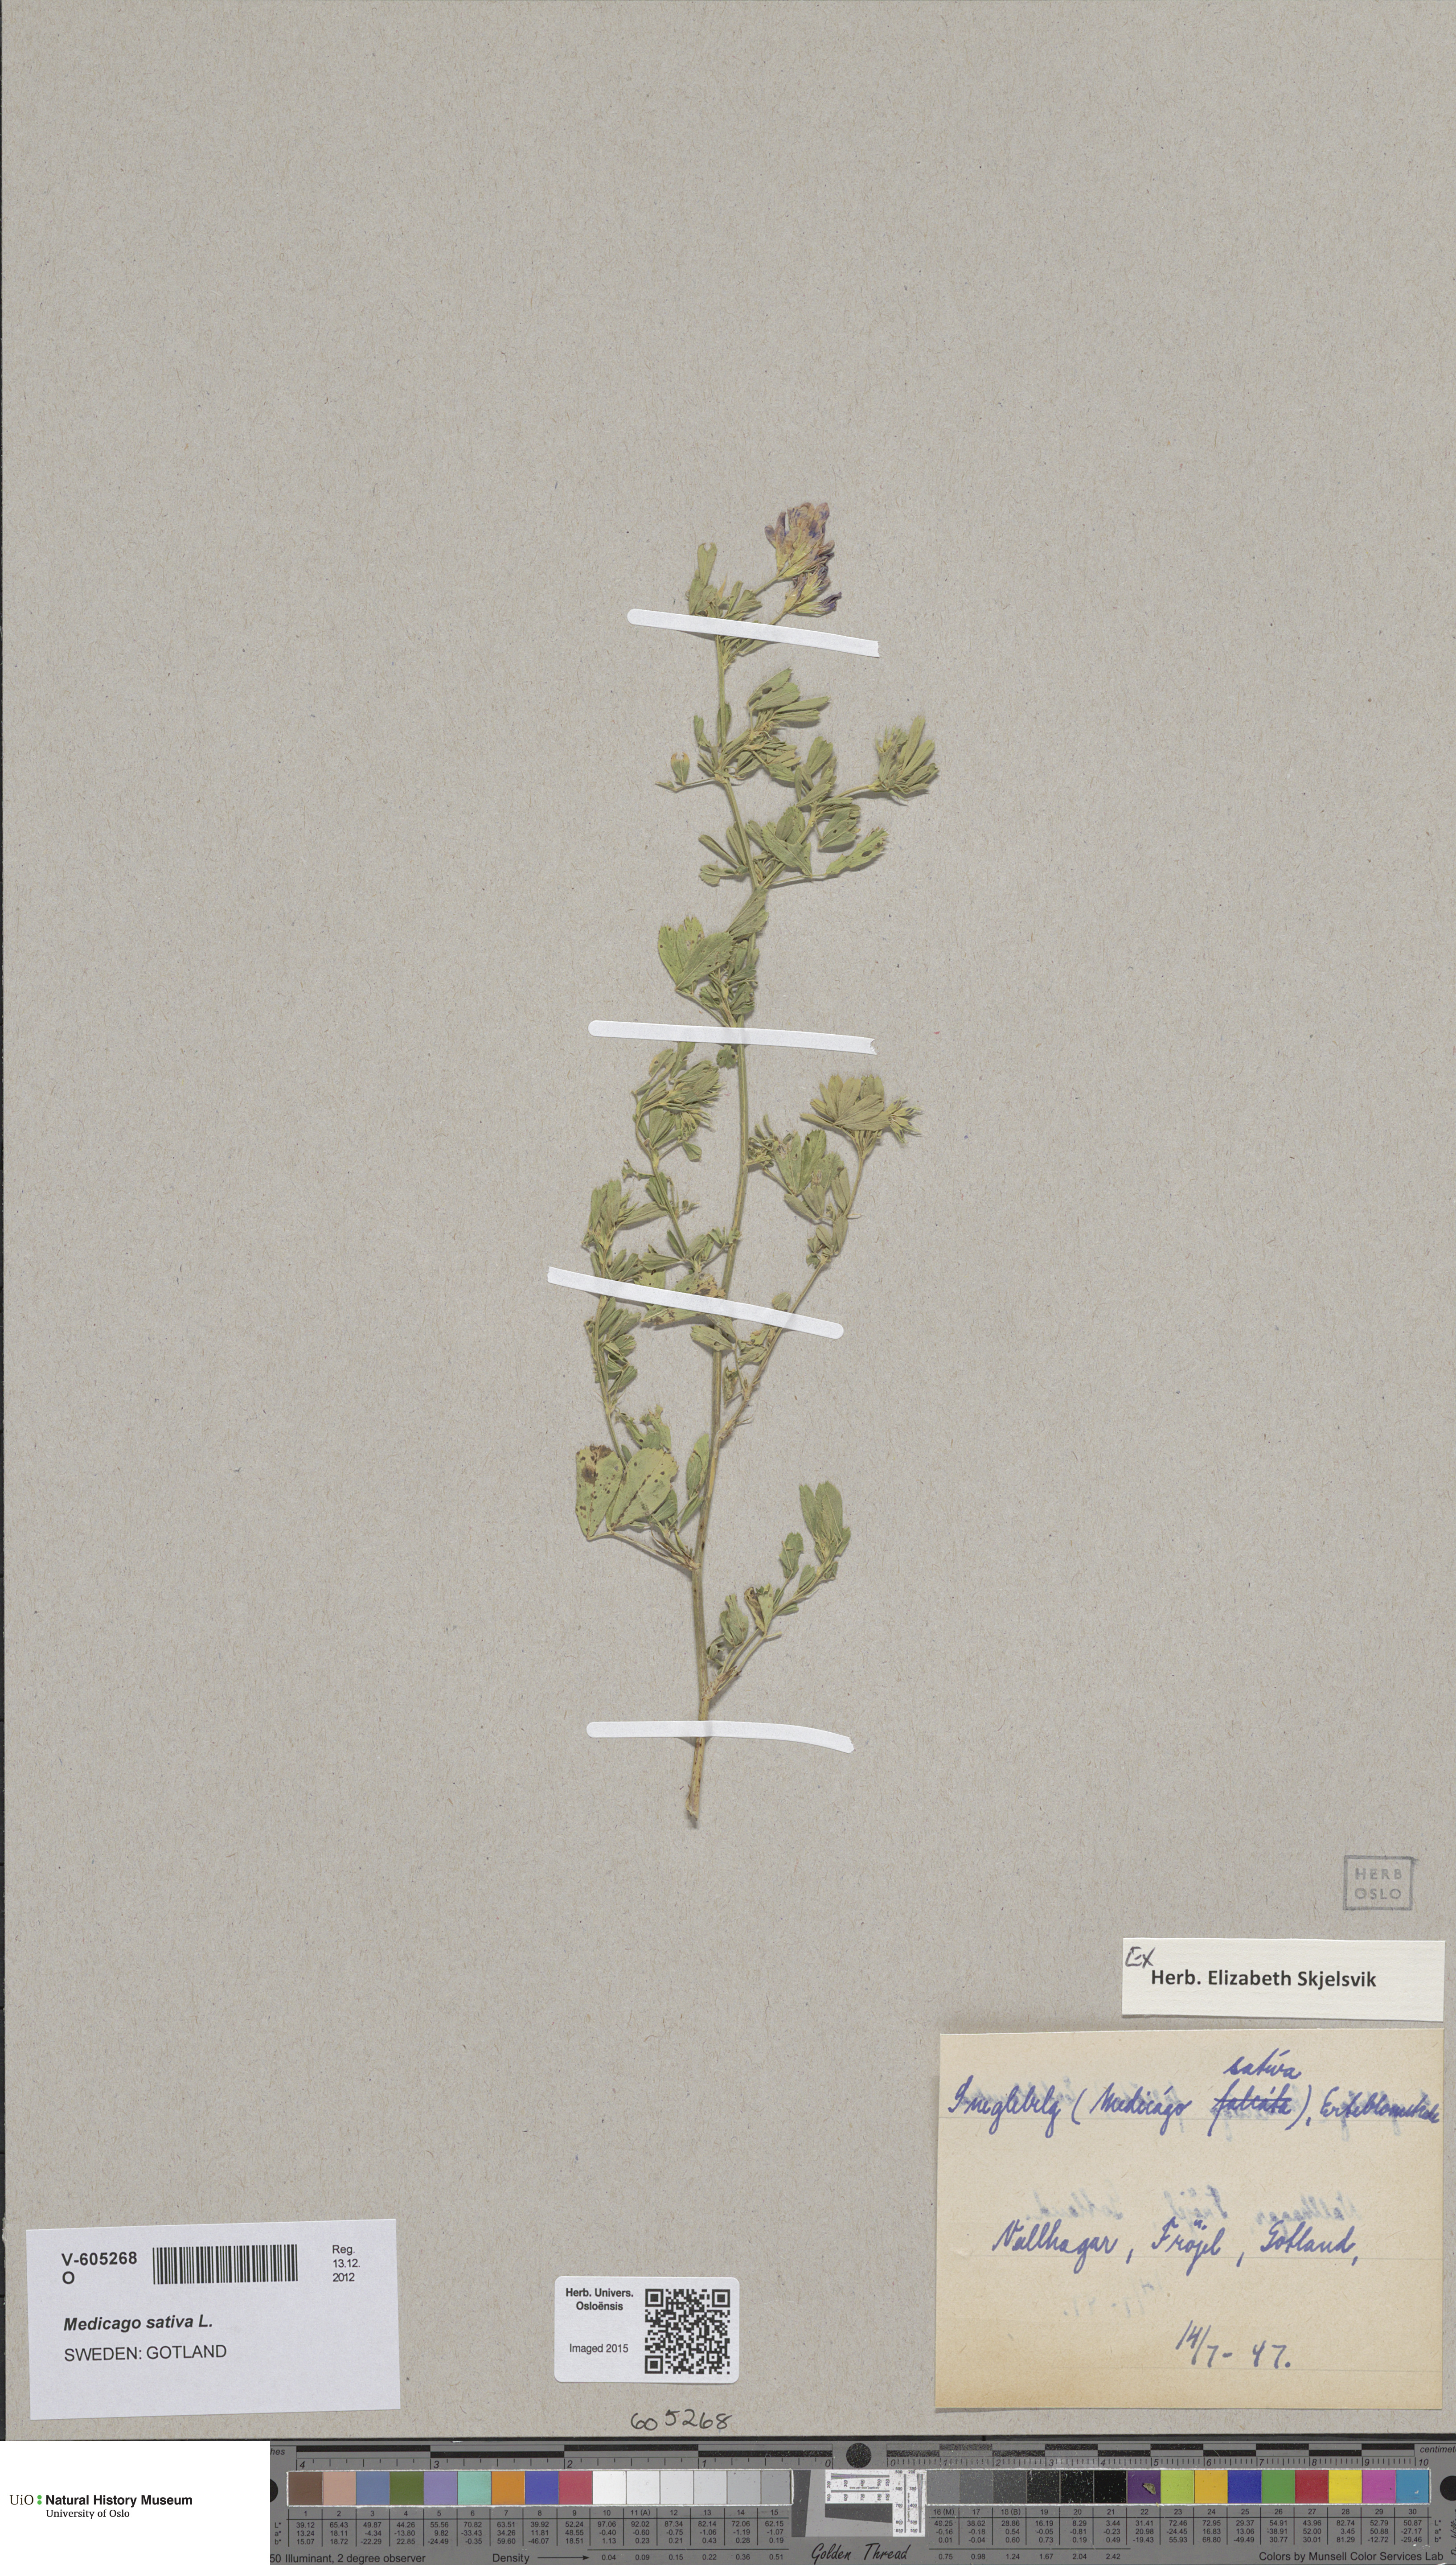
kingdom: Plantae
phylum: Tracheophyta
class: Magnoliopsida
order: Fabales
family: Fabaceae
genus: Medicago
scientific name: Medicago sativa
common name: Alfalfa
